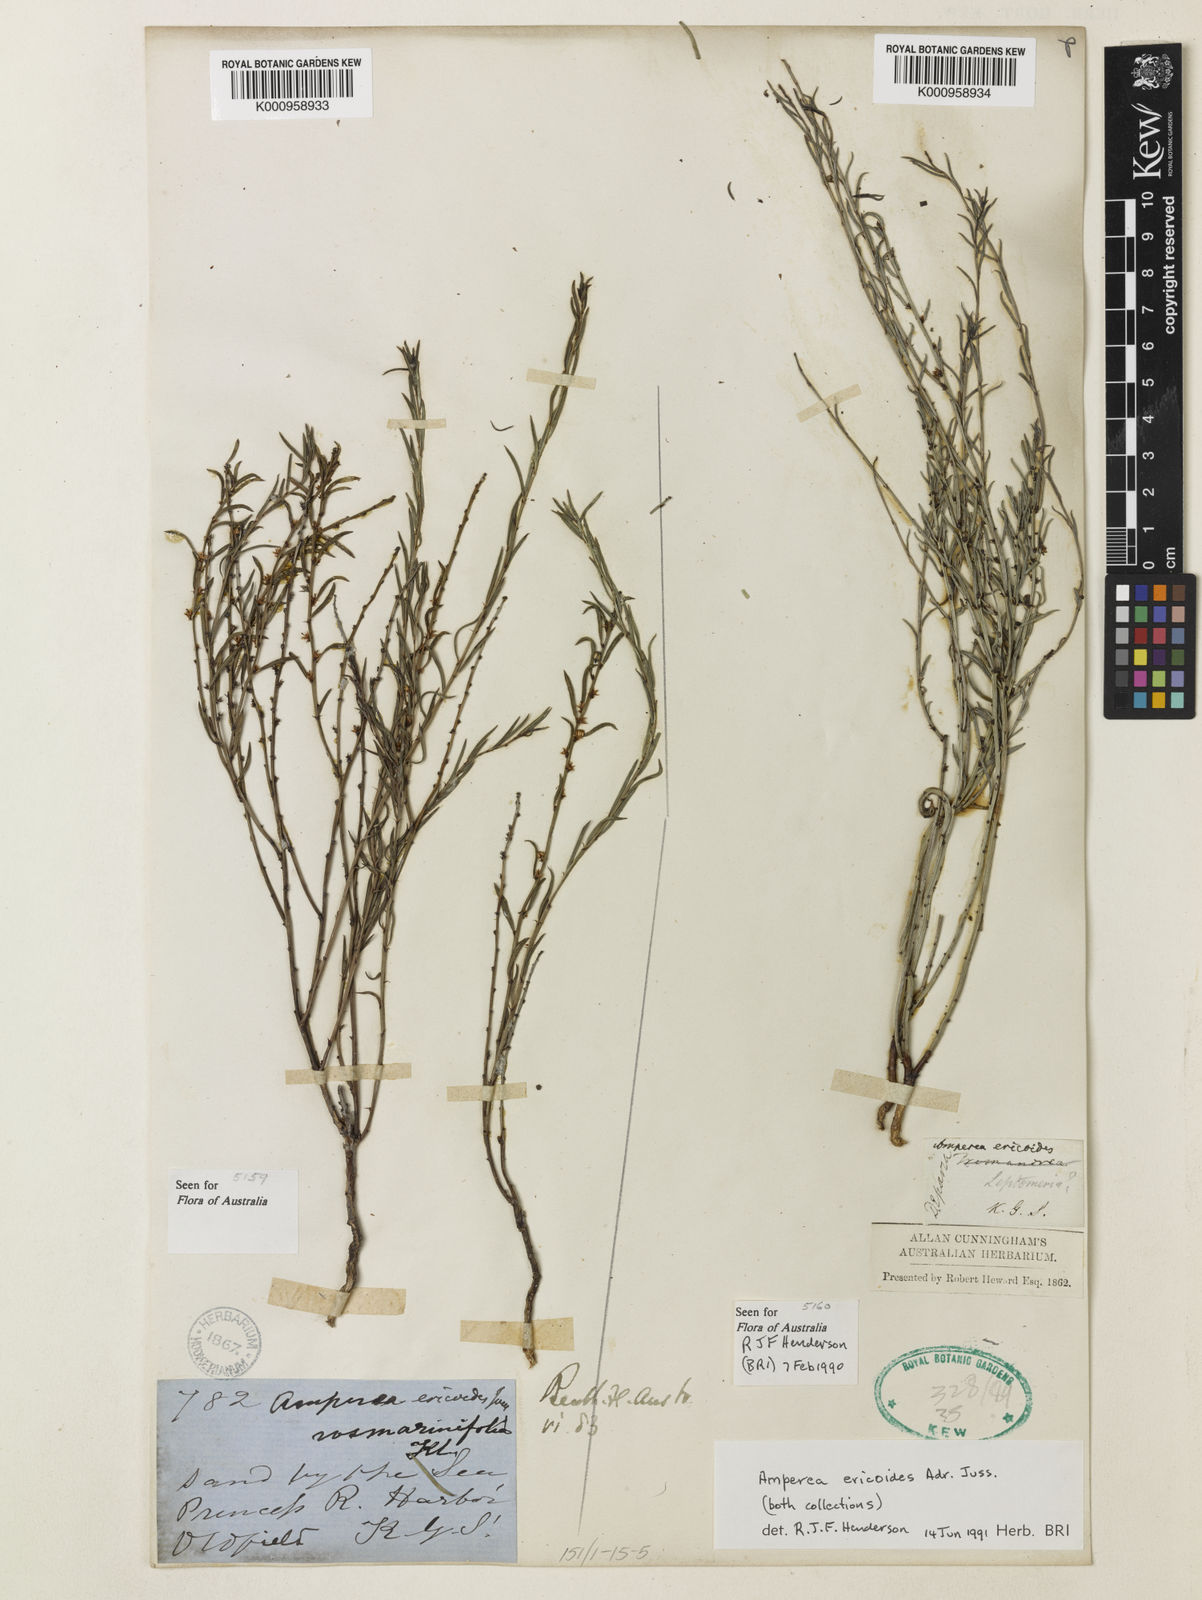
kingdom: Plantae
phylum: Tracheophyta
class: Magnoliopsida
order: Malpighiales
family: Euphorbiaceae
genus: Amperea
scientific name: Amperea ericoides
